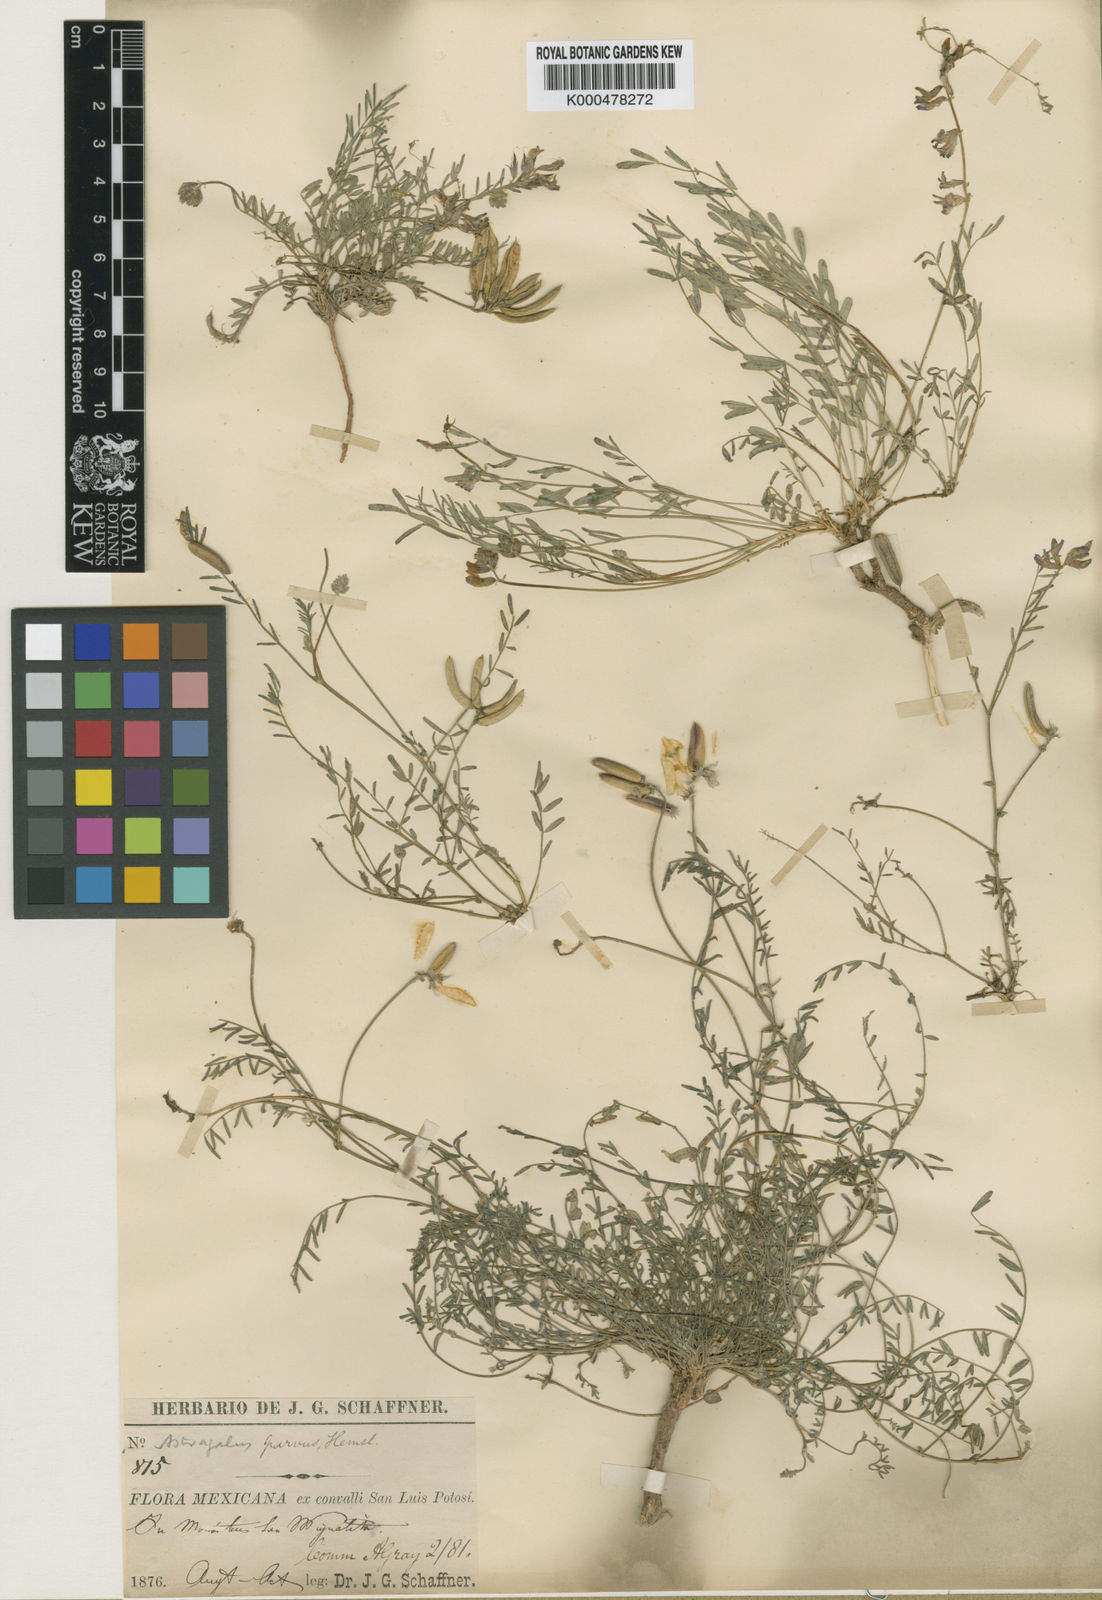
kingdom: Plantae
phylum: Tracheophyta
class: Magnoliopsida
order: Fabales
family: Fabaceae
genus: Astragalus
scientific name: Astragalus parvus
